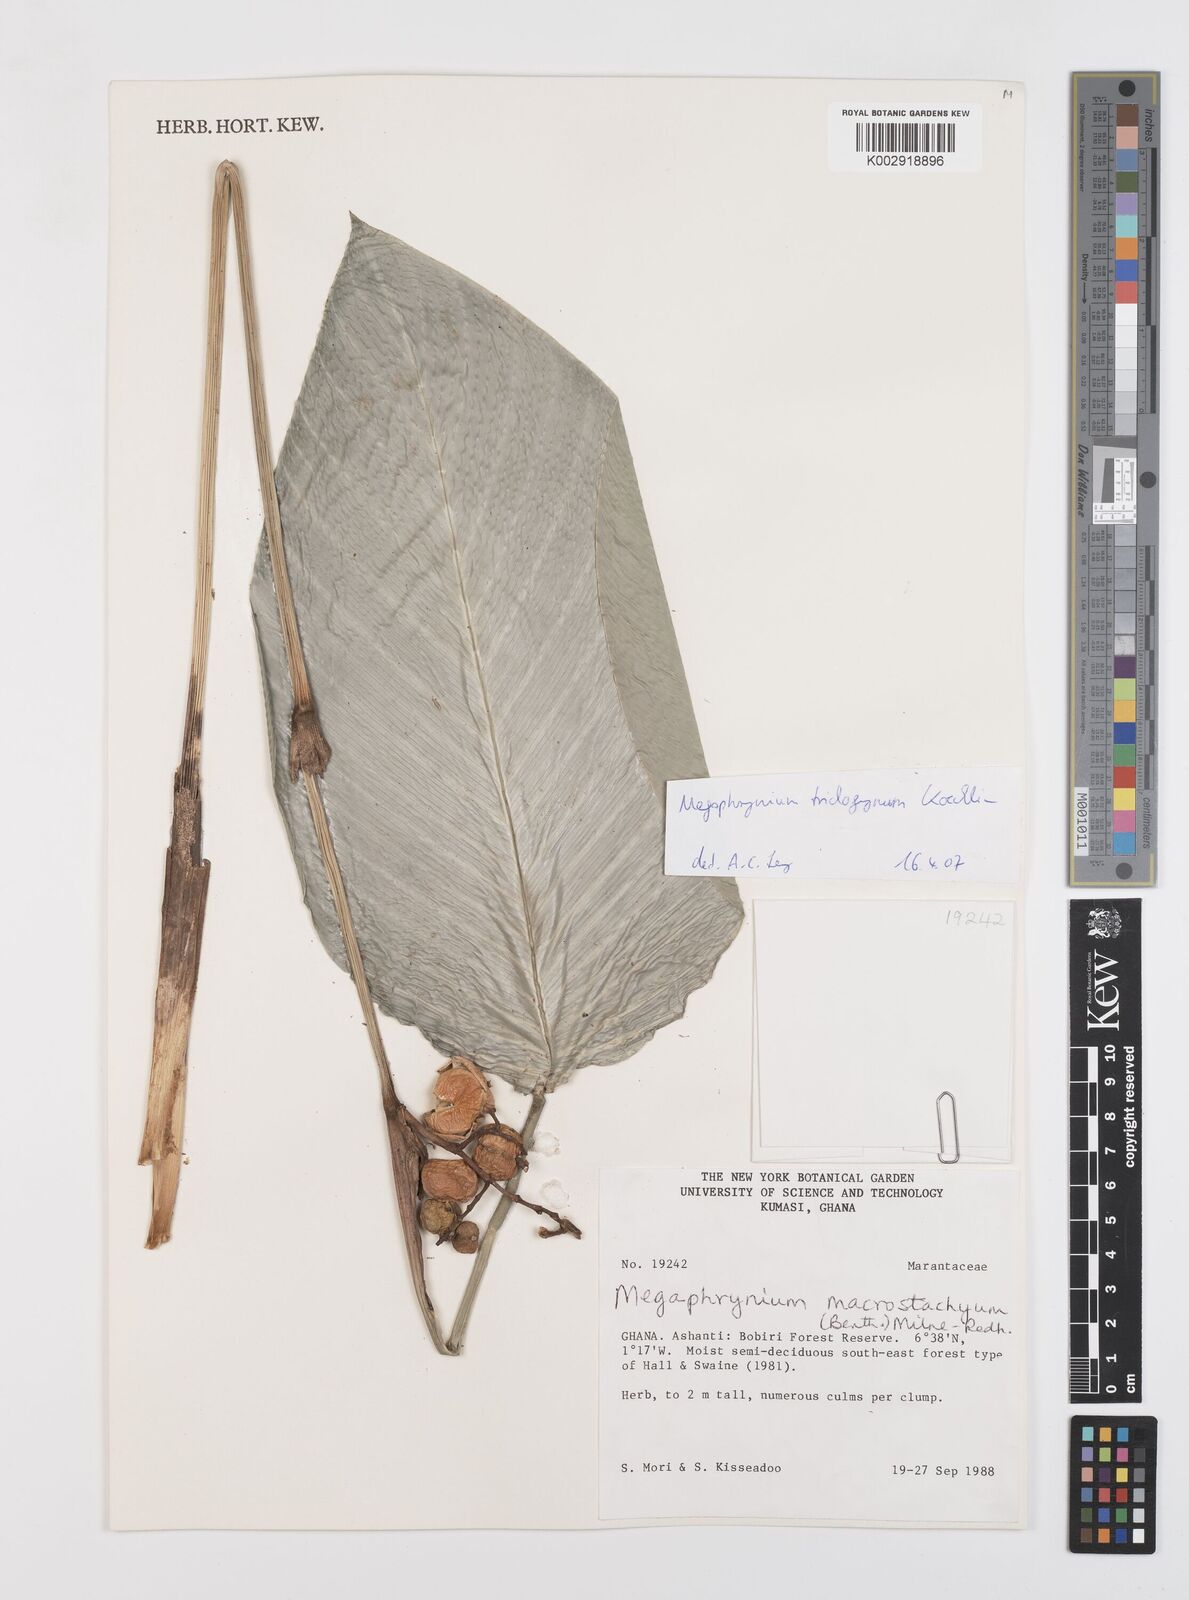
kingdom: Plantae
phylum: Tracheophyta
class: Liliopsida
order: Zingiberales
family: Marantaceae
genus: Megaphrynium
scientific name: Megaphrynium trichogynum
